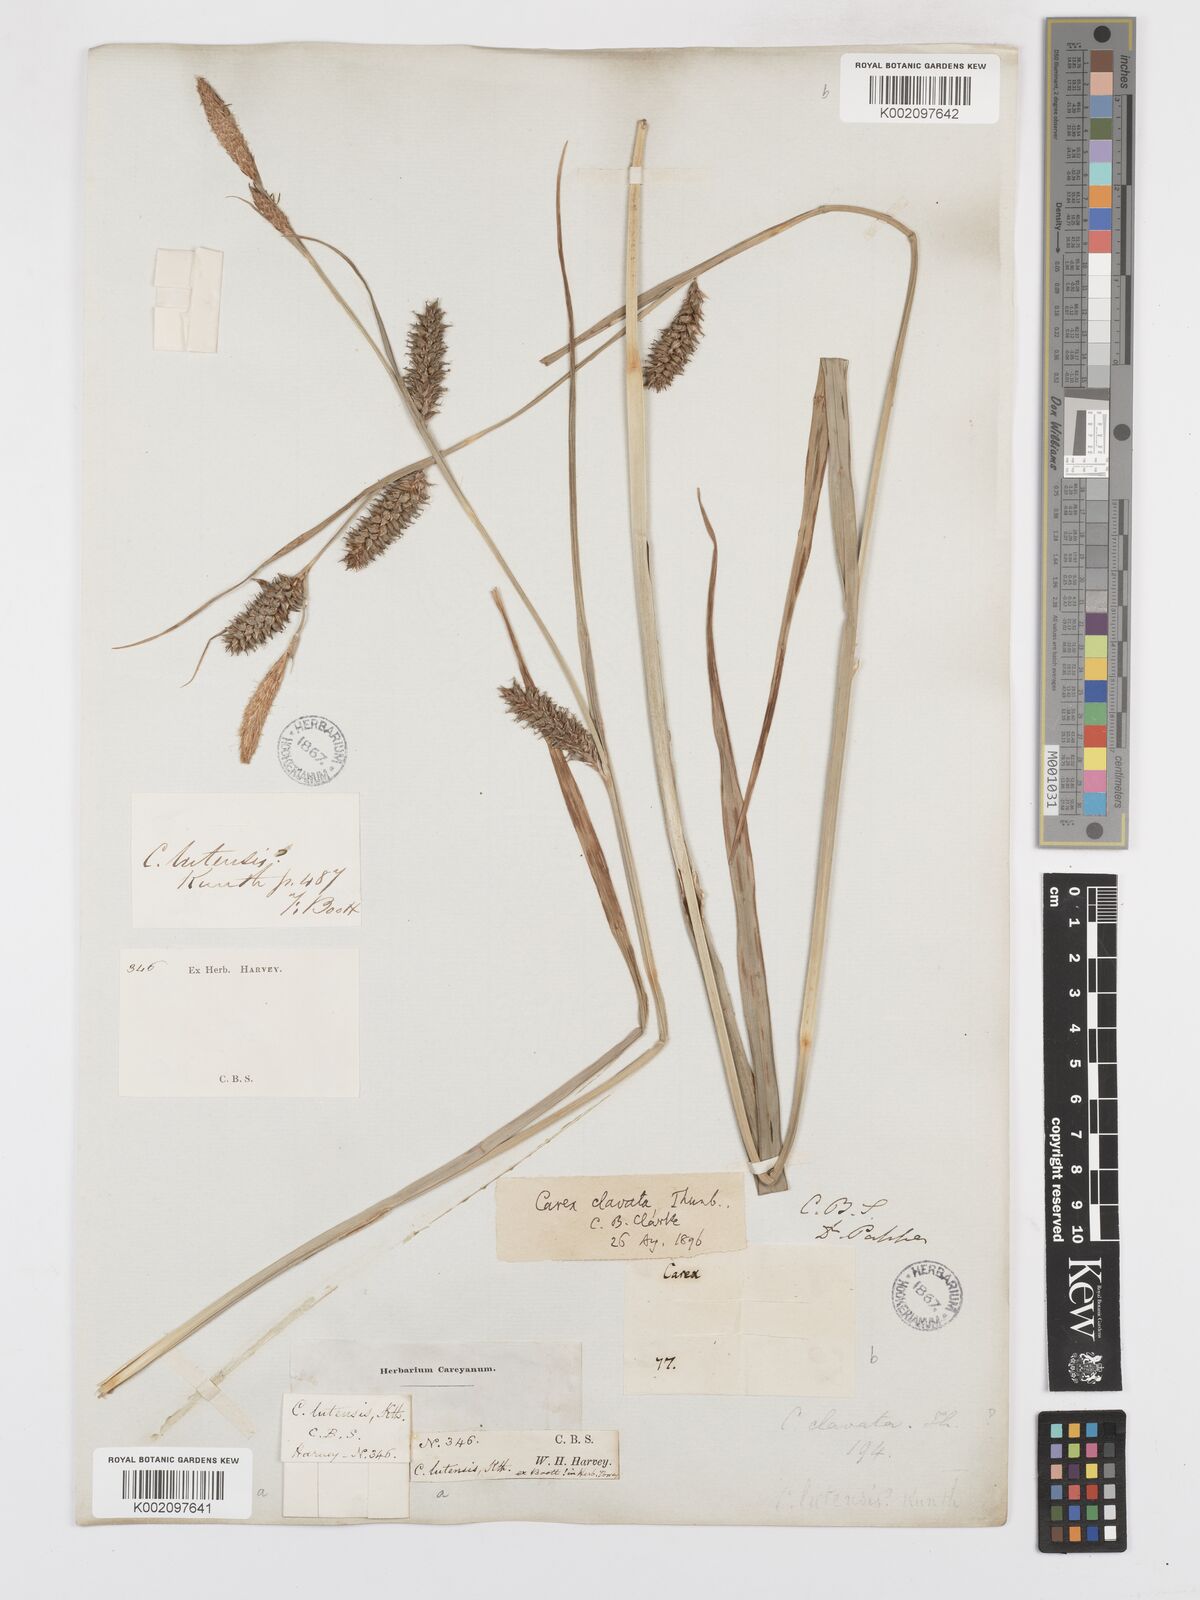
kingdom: Plantae
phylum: Tracheophyta
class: Liliopsida
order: Poales
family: Cyperaceae
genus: Carex
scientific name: Carex clavata
